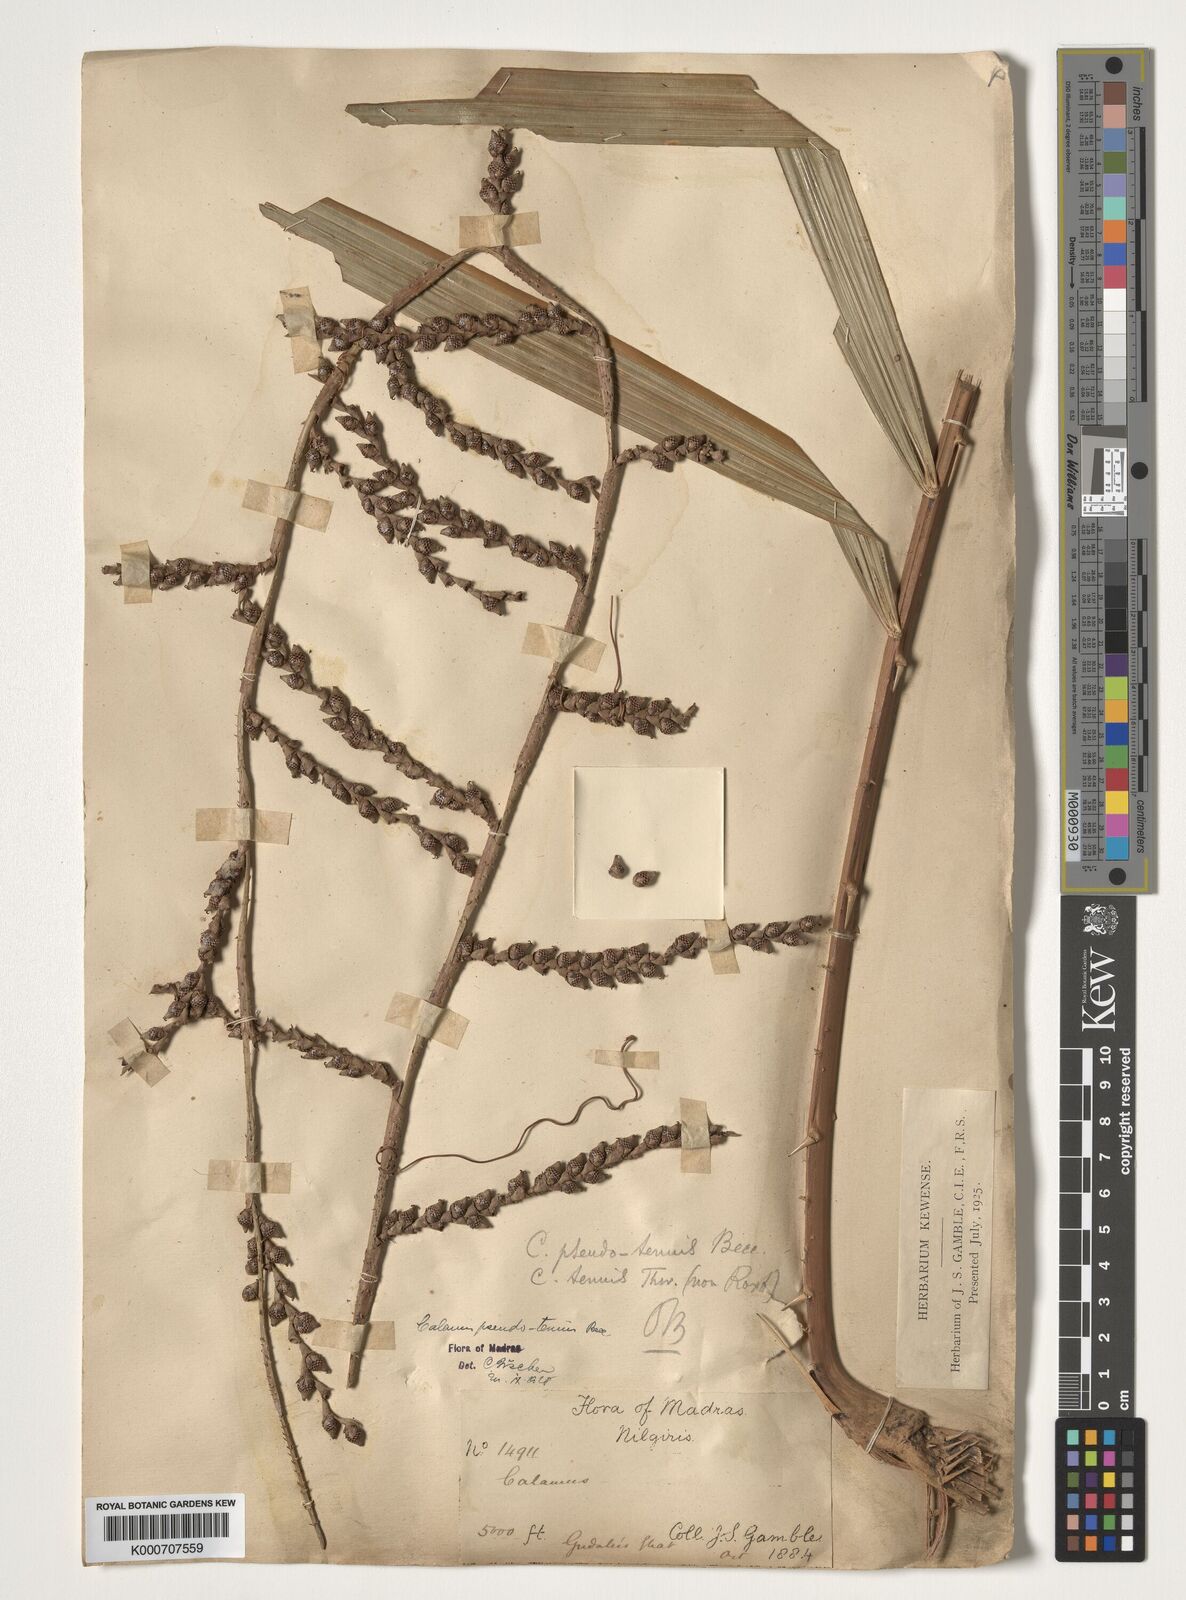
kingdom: Plantae
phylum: Tracheophyta
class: Liliopsida
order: Arecales
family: Arecaceae
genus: Calamus
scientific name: Calamus
